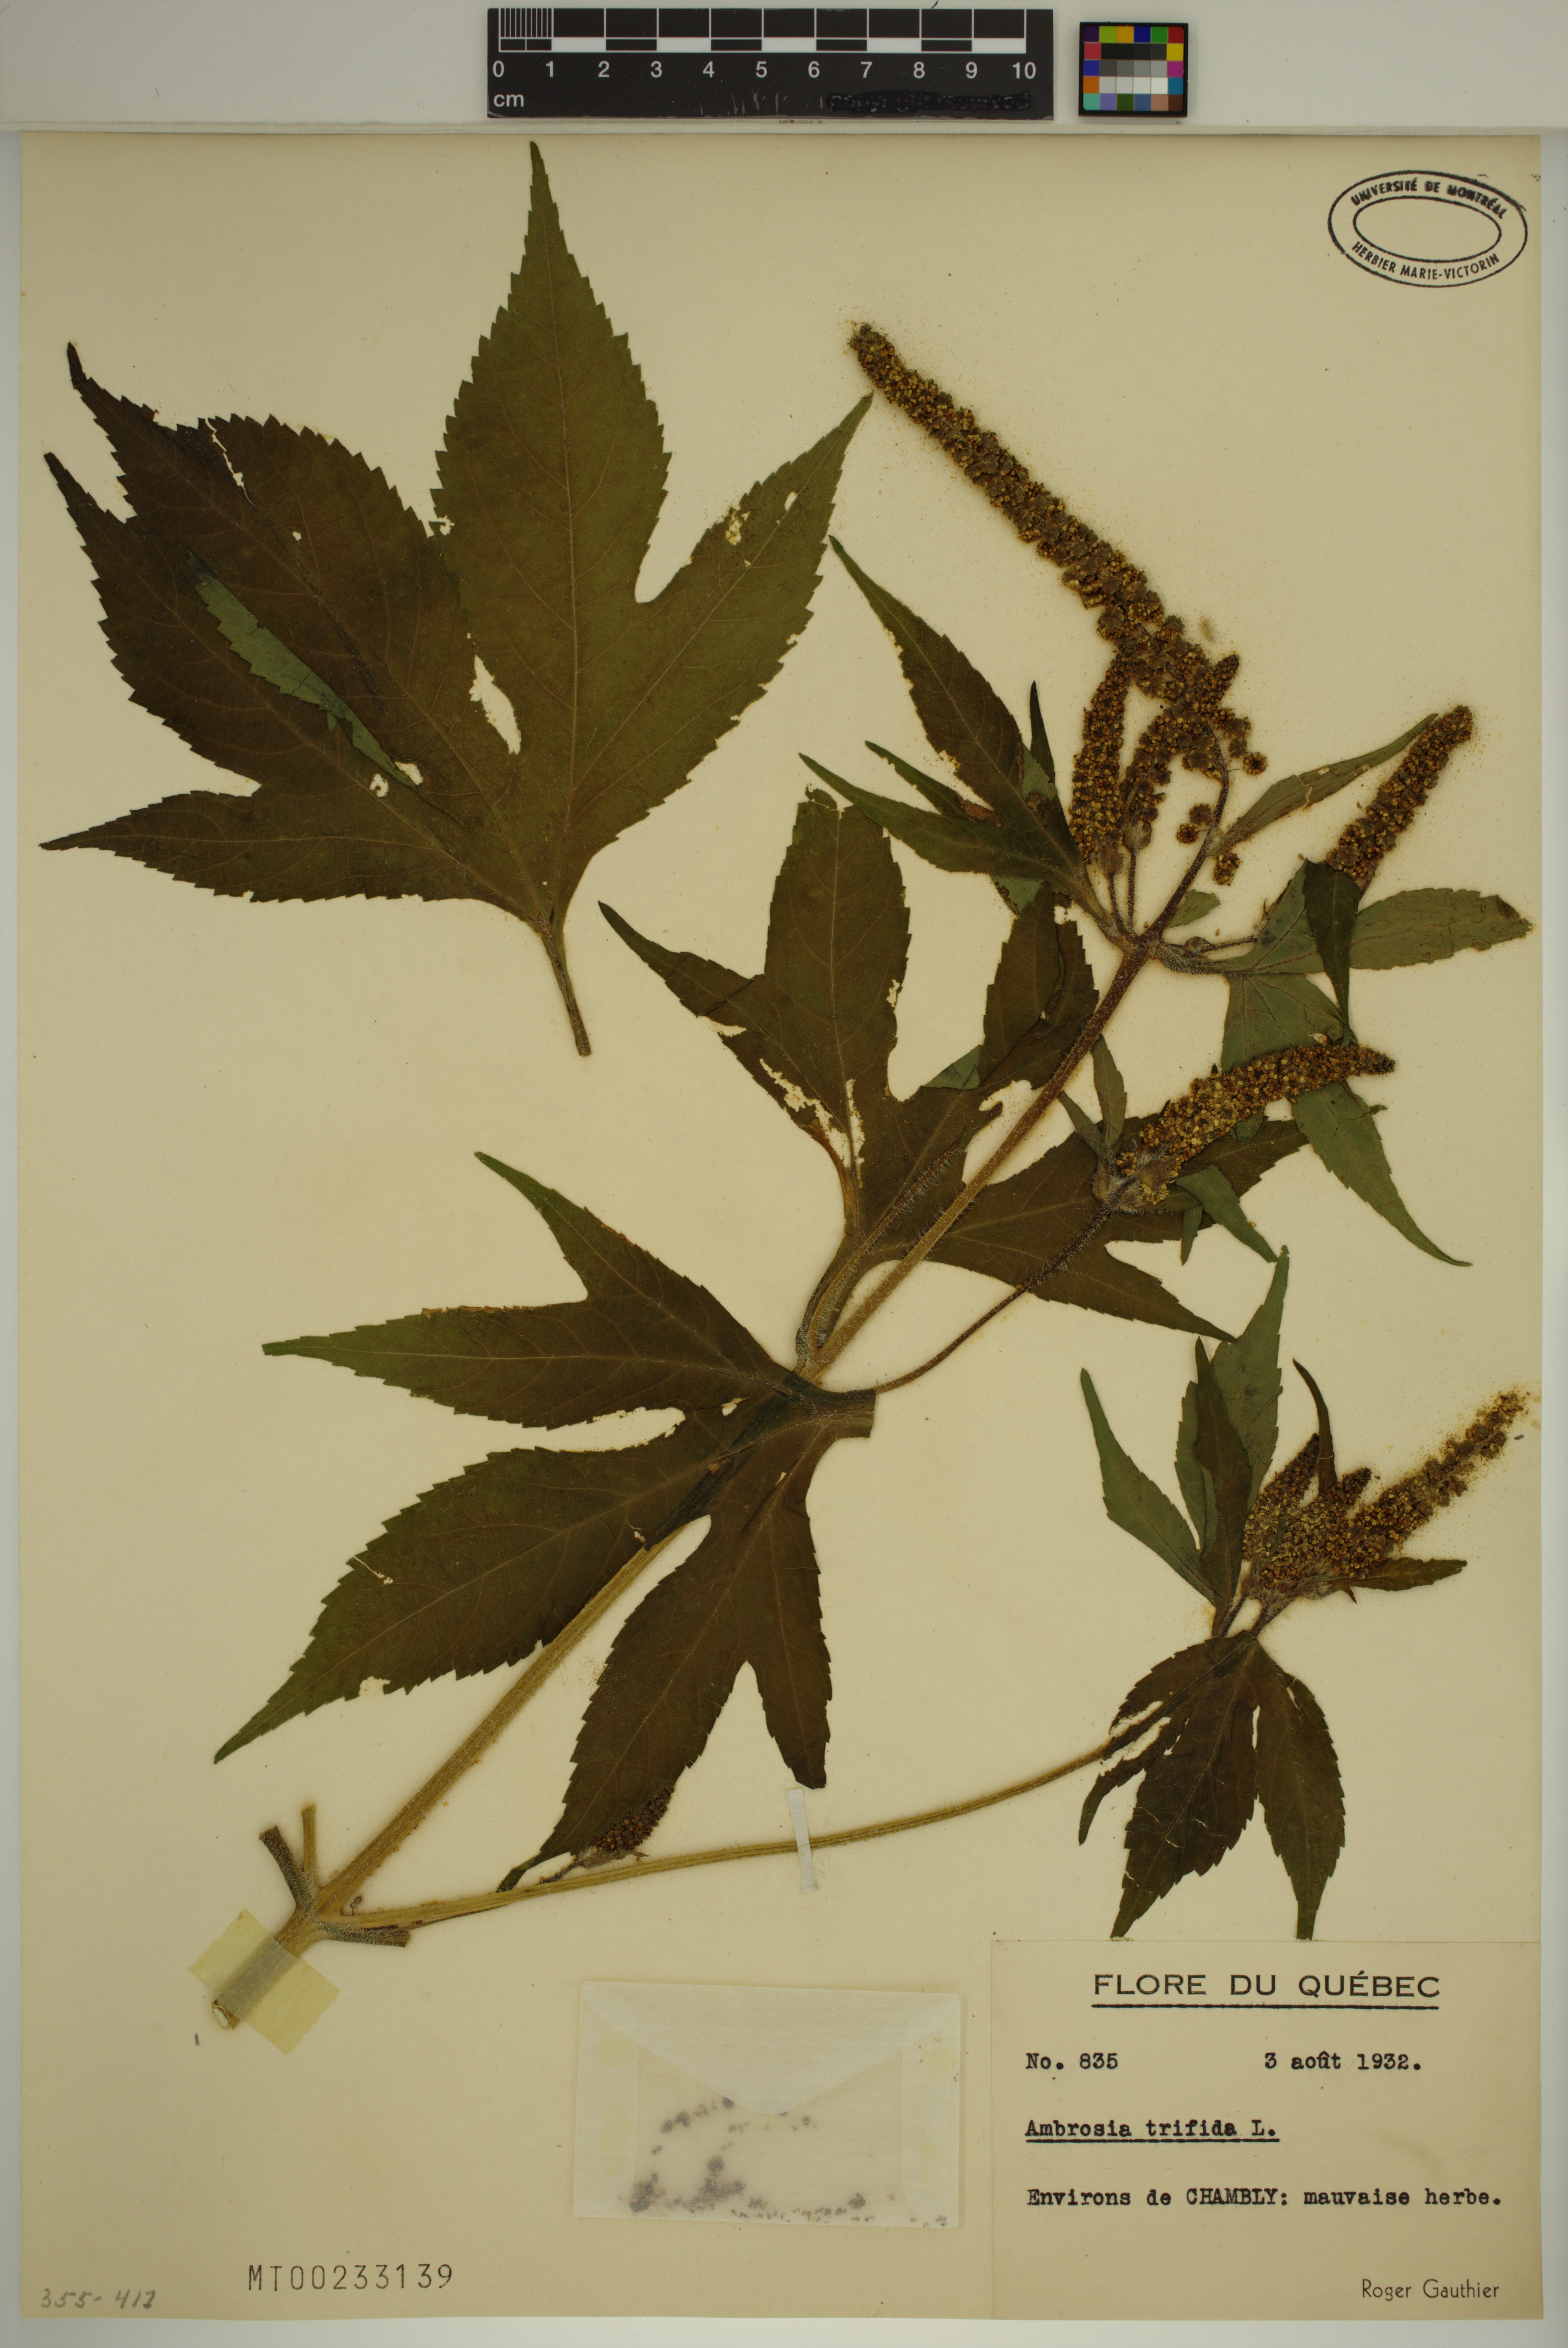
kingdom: Plantae
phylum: Tracheophyta
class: Magnoliopsida
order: Asterales
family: Asteraceae
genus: Ambrosia
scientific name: Ambrosia trifida
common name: Giant ragweed
